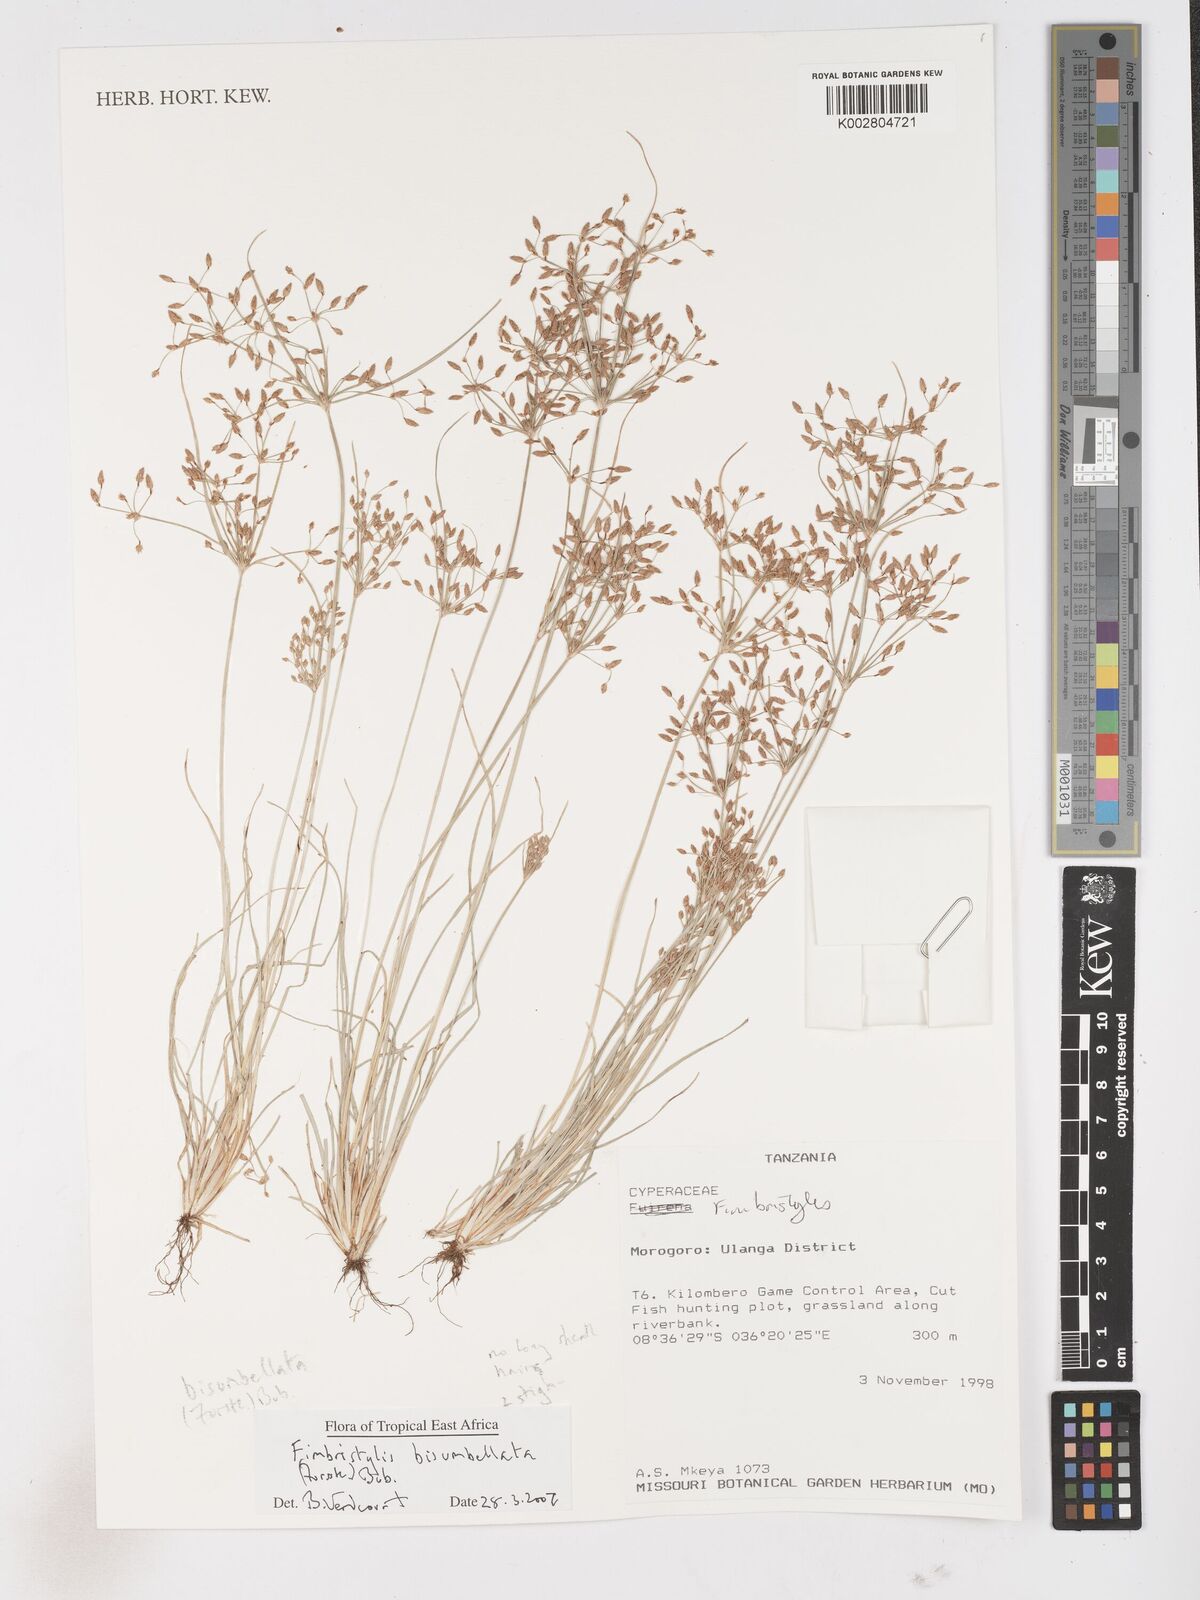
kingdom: Plantae
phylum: Tracheophyta
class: Liliopsida
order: Poales
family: Cyperaceae
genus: Fimbristylis
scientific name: Fimbristylis bisumbellata
